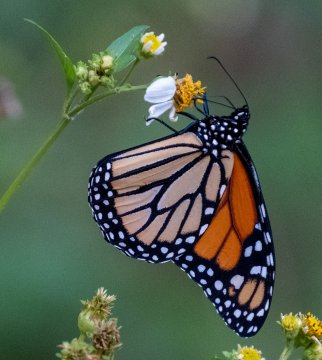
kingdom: Animalia
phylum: Arthropoda
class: Insecta
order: Lepidoptera
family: Nymphalidae
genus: Danaus
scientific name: Danaus plexippus
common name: Monarch
